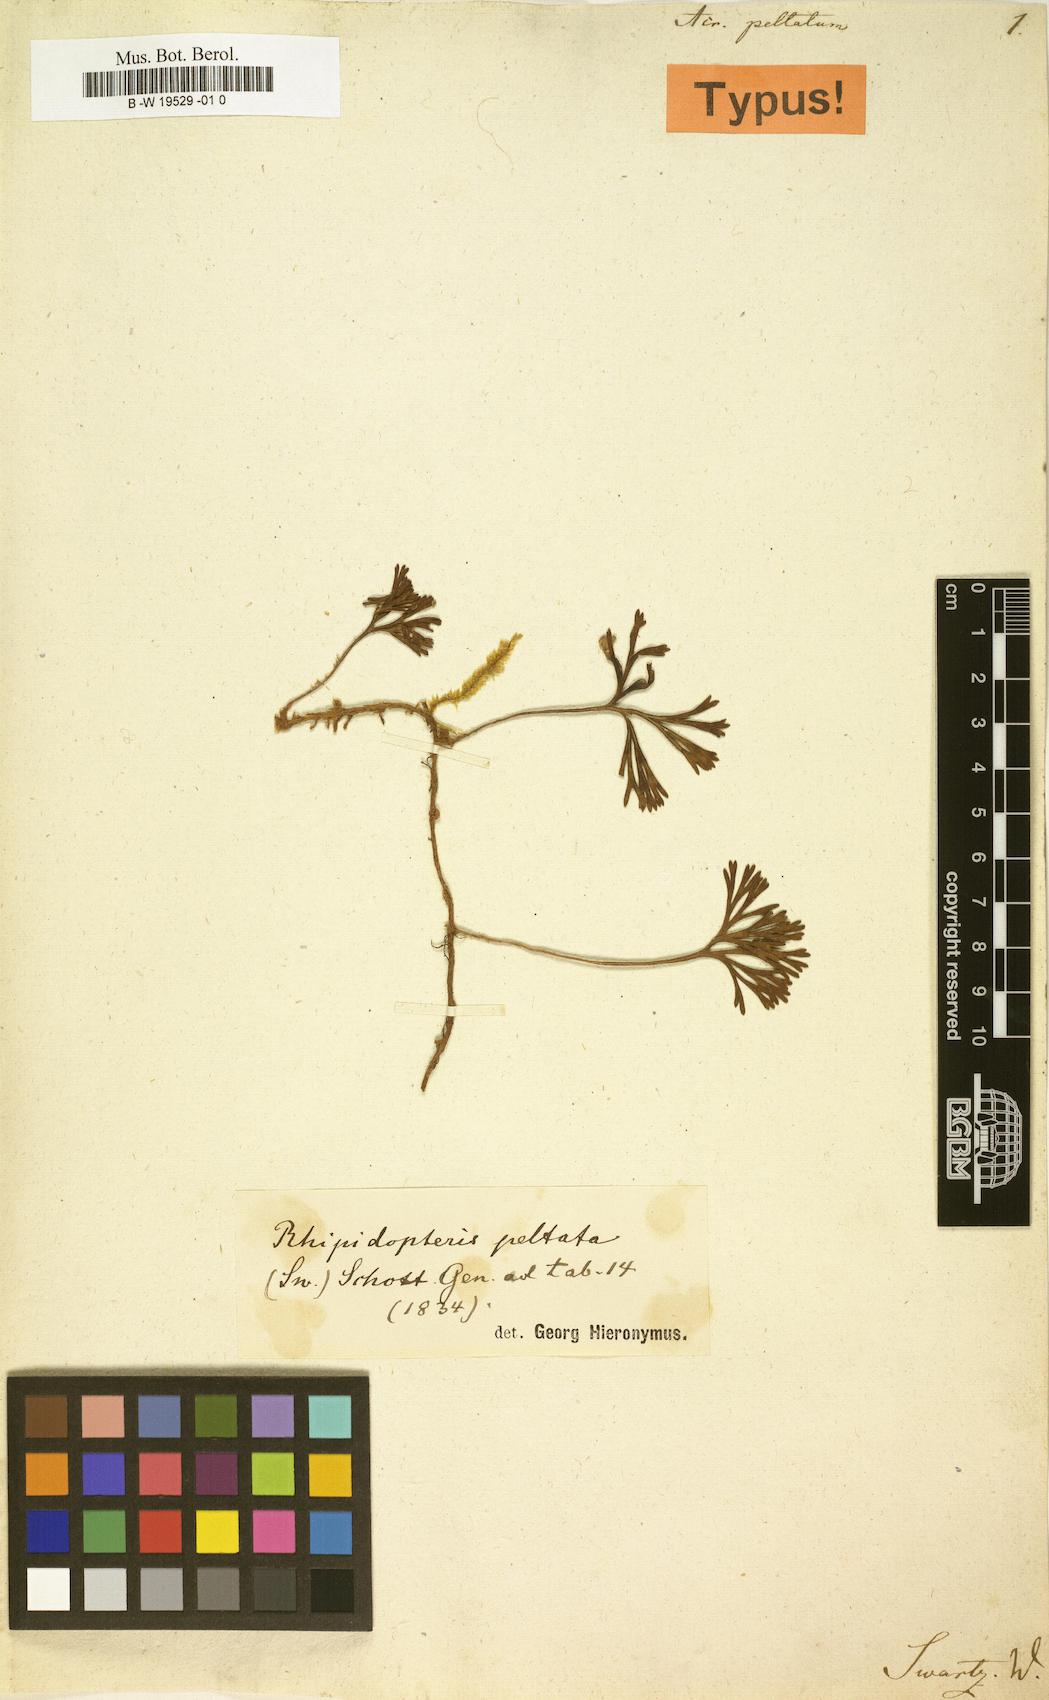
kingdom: Plantae
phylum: Tracheophyta
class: Polypodiopsida
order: Polypodiales
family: Dryopteridaceae
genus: Elaphoglossum
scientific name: Elaphoglossum peltatum
